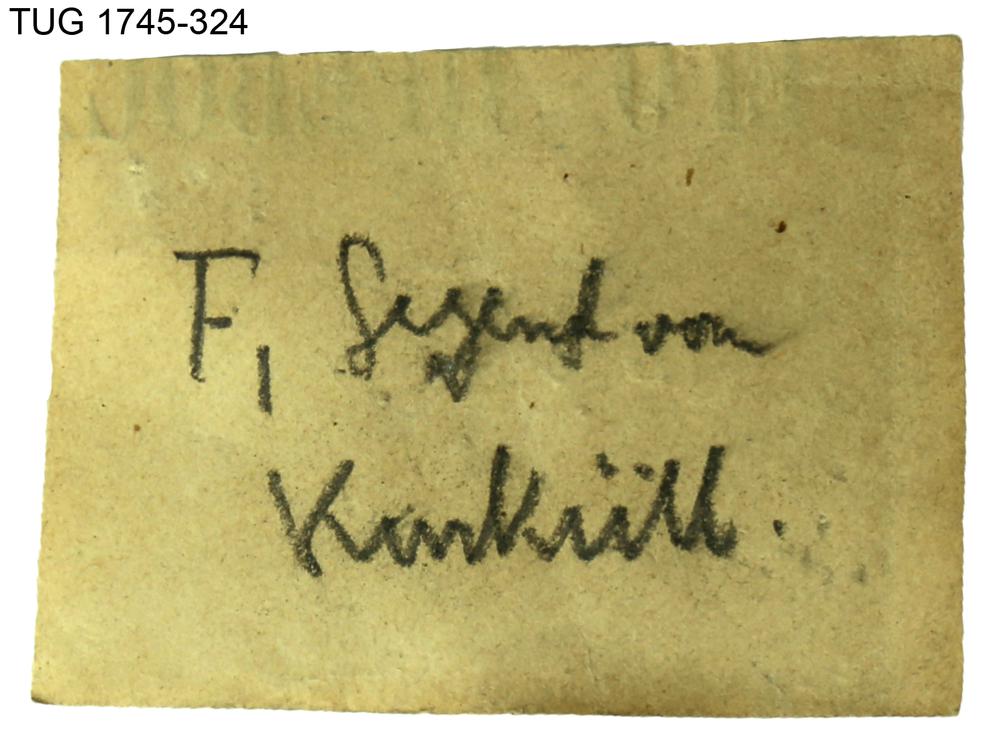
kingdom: Animalia
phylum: Mollusca
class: Cephalopoda
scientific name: Cephalopoda
